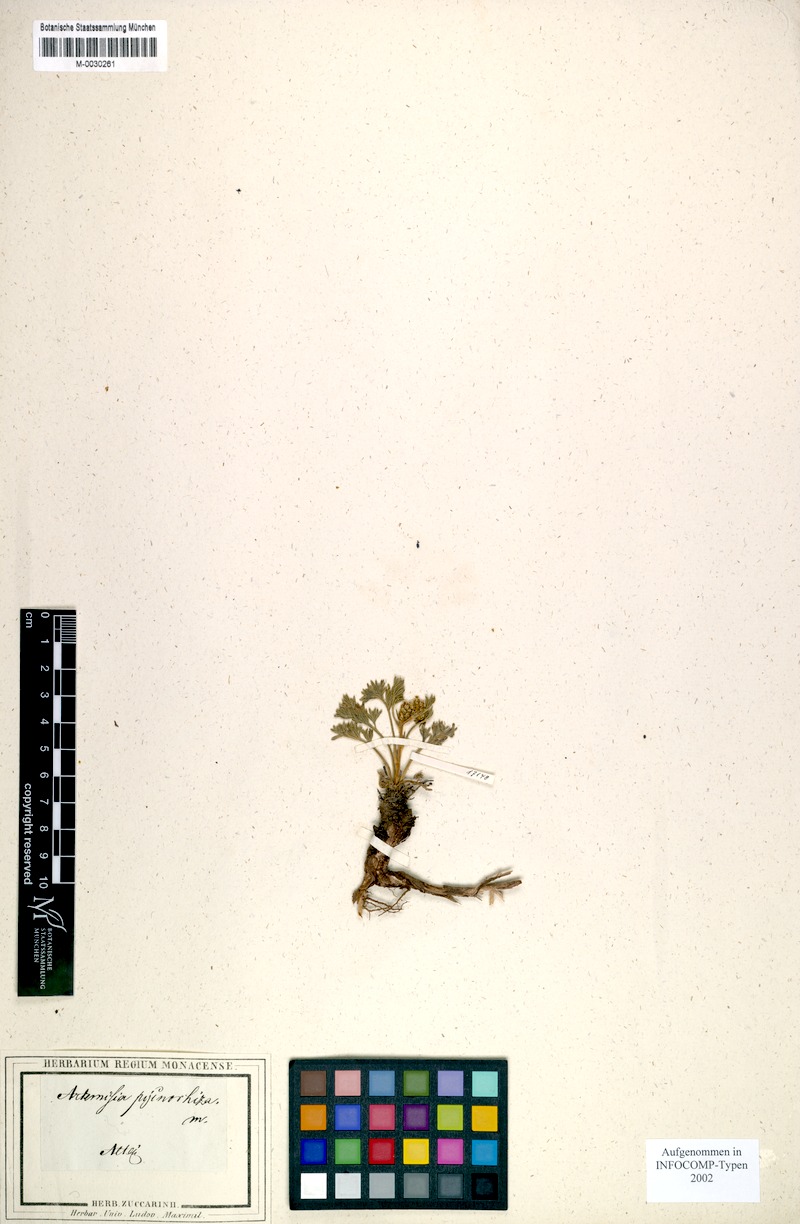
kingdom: Plantae
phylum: Tracheophyta
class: Magnoliopsida
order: Asterales
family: Asteraceae
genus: Artemisia
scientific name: Artemisia pycnorrhiza
